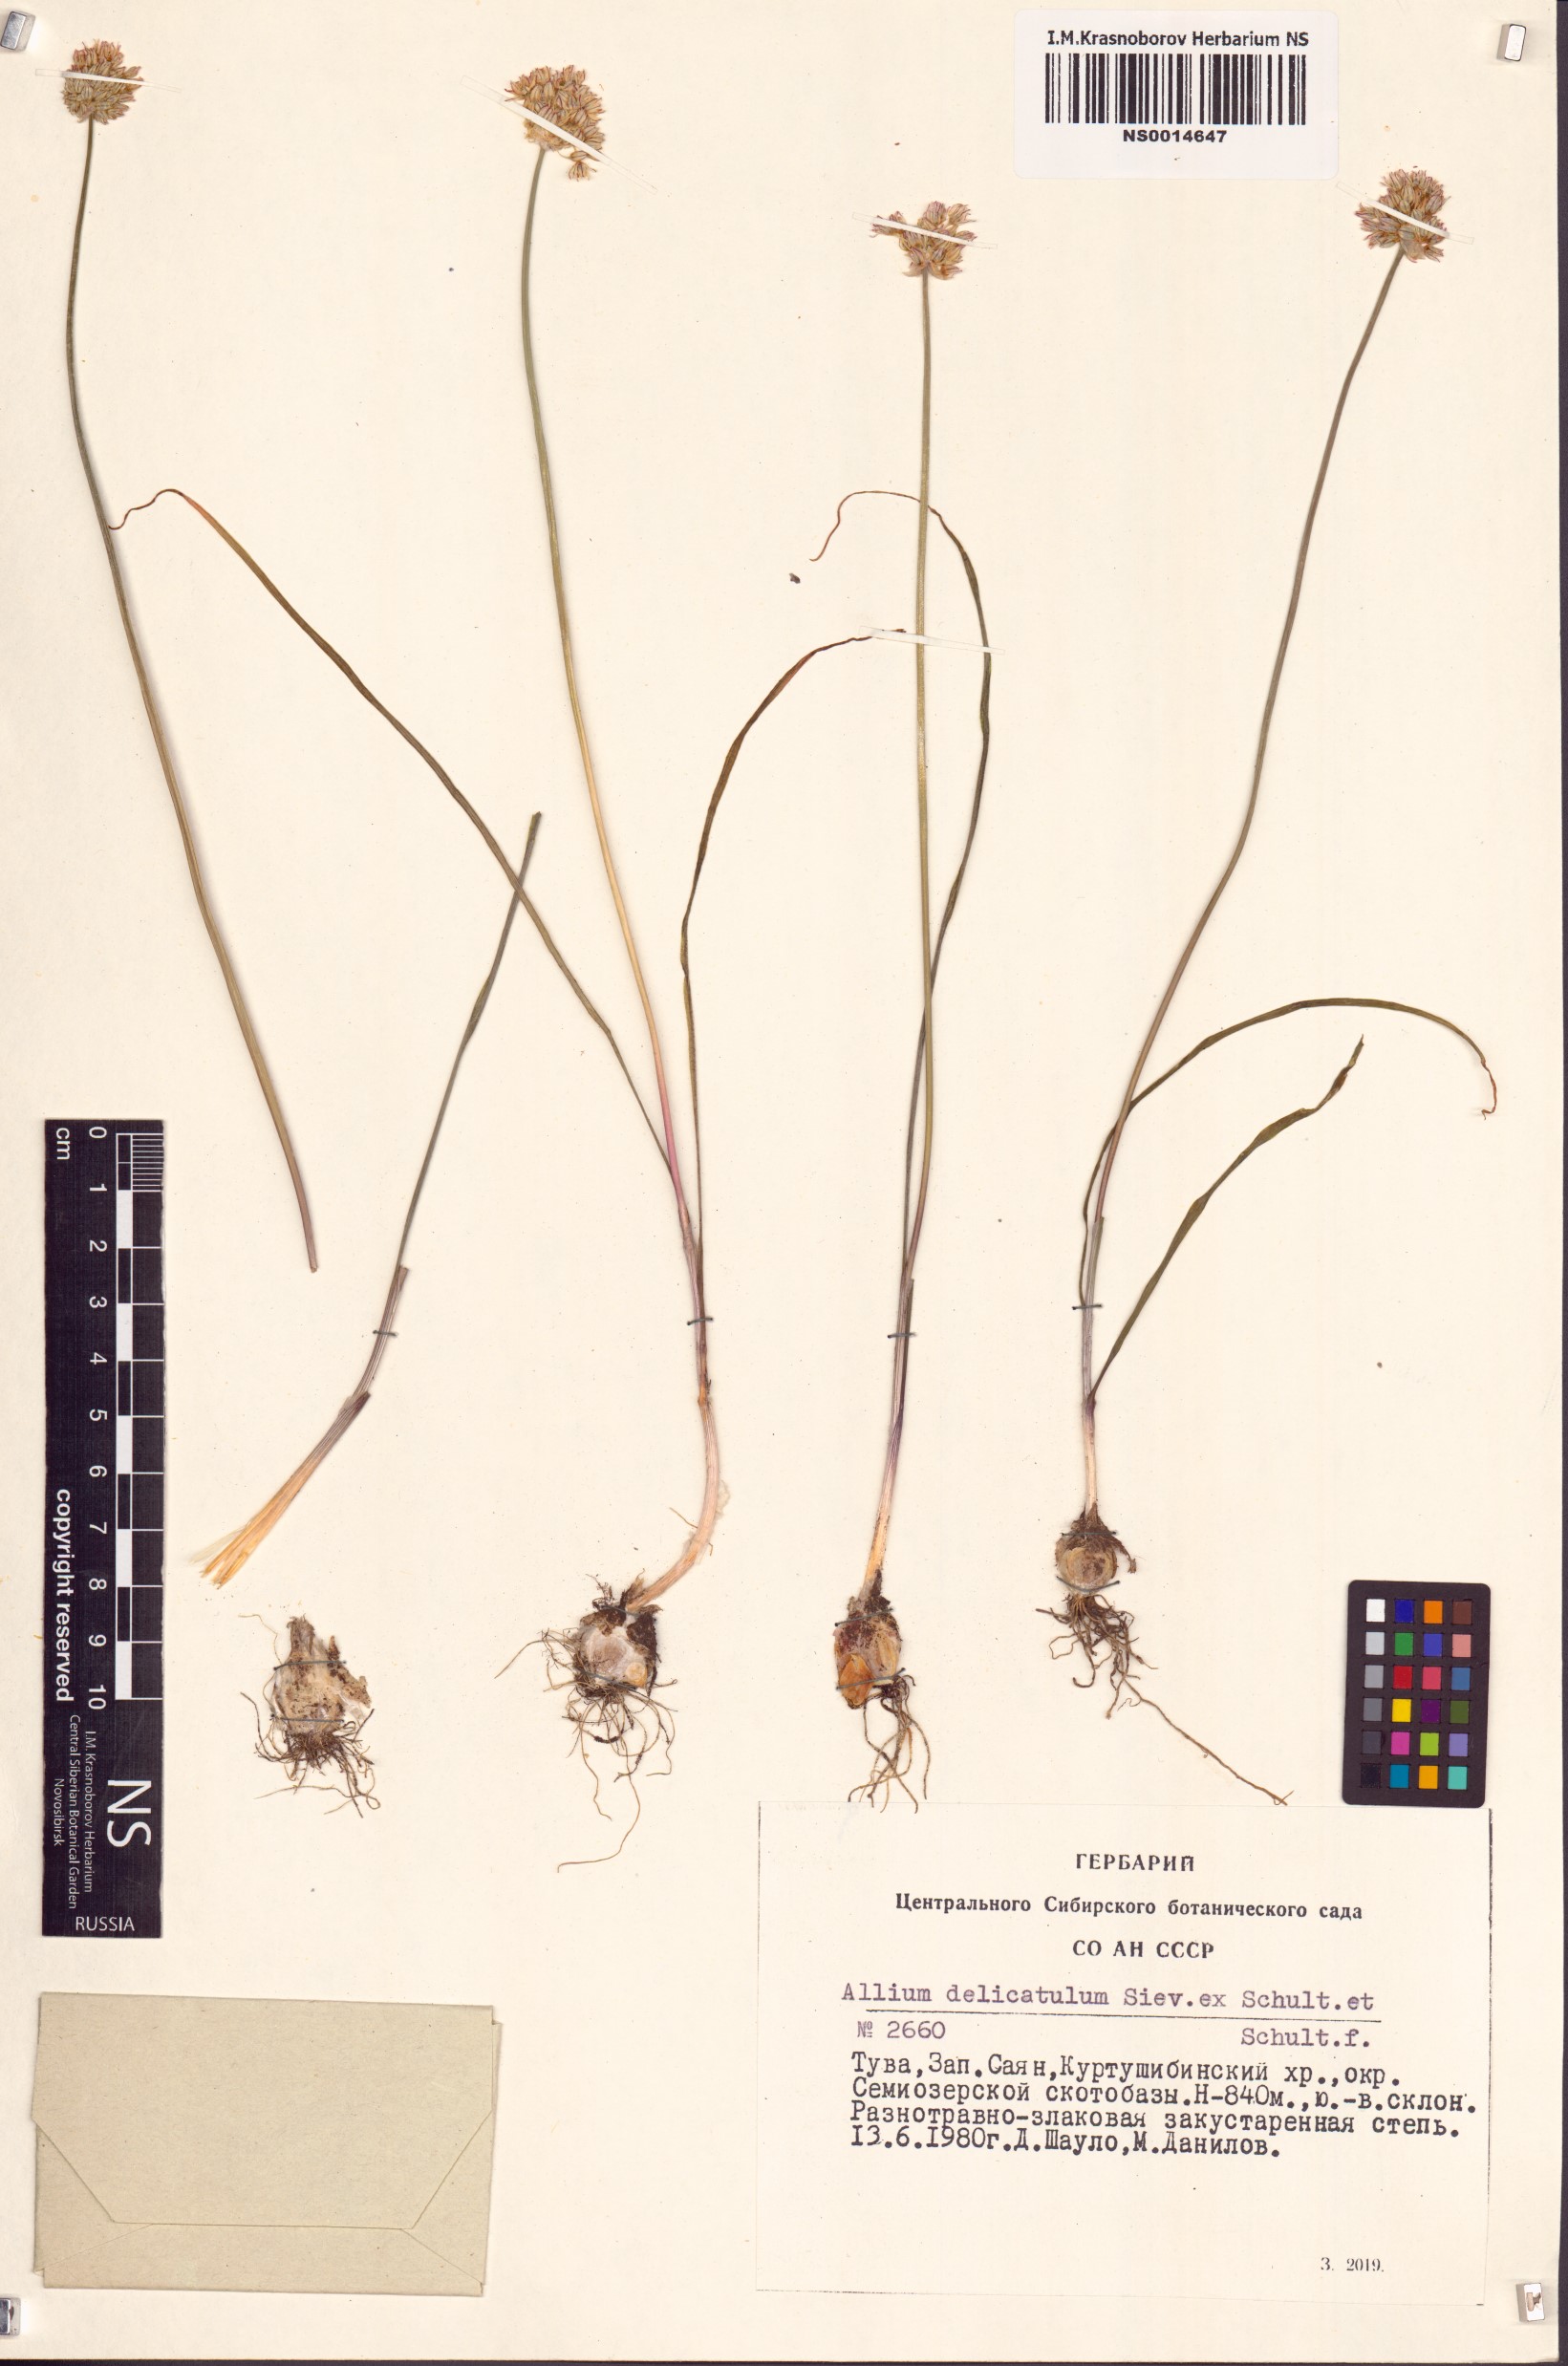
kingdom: Plantae
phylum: Tracheophyta
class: Liliopsida
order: Asparagales
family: Amaryllidaceae
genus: Allium
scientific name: Allium delicatulum
